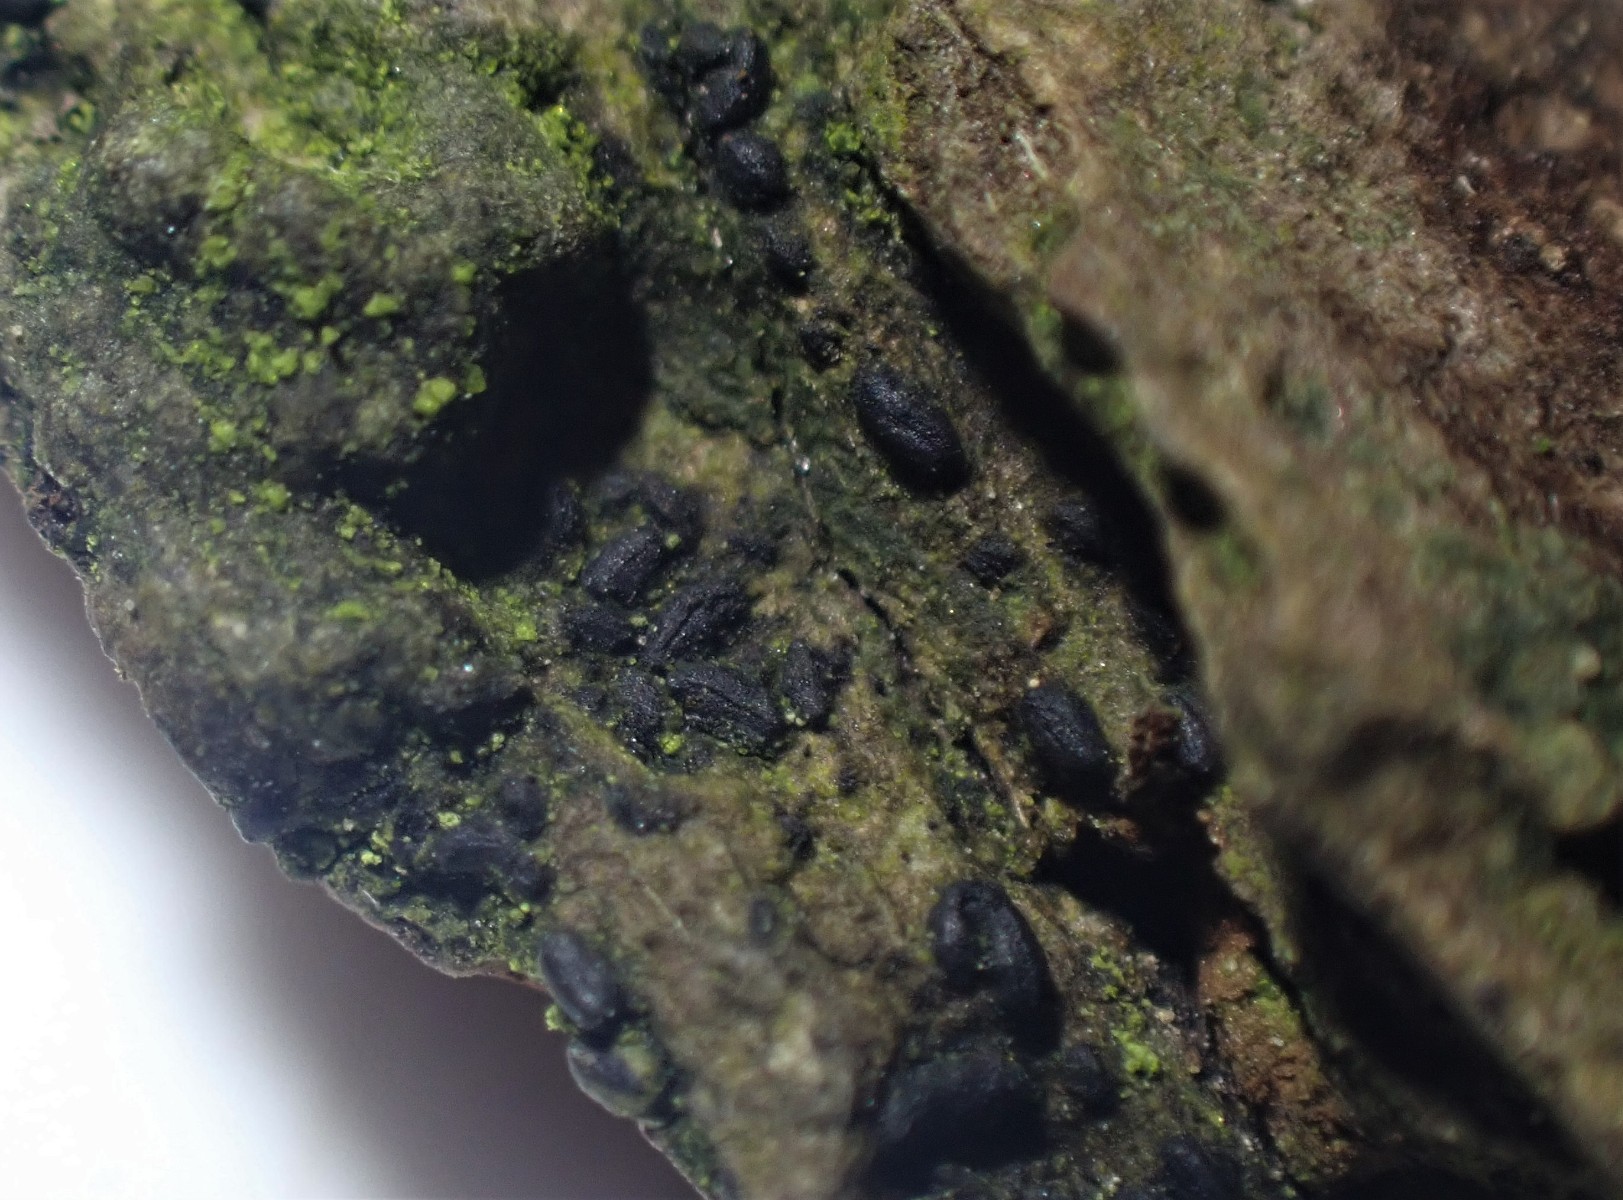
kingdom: Fungi
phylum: Ascomycota
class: Dothideomycetes
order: Hysteriales
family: Hysteriaceae
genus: Hysterium
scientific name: Hysterium acuminatum
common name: almindelig kulmund
